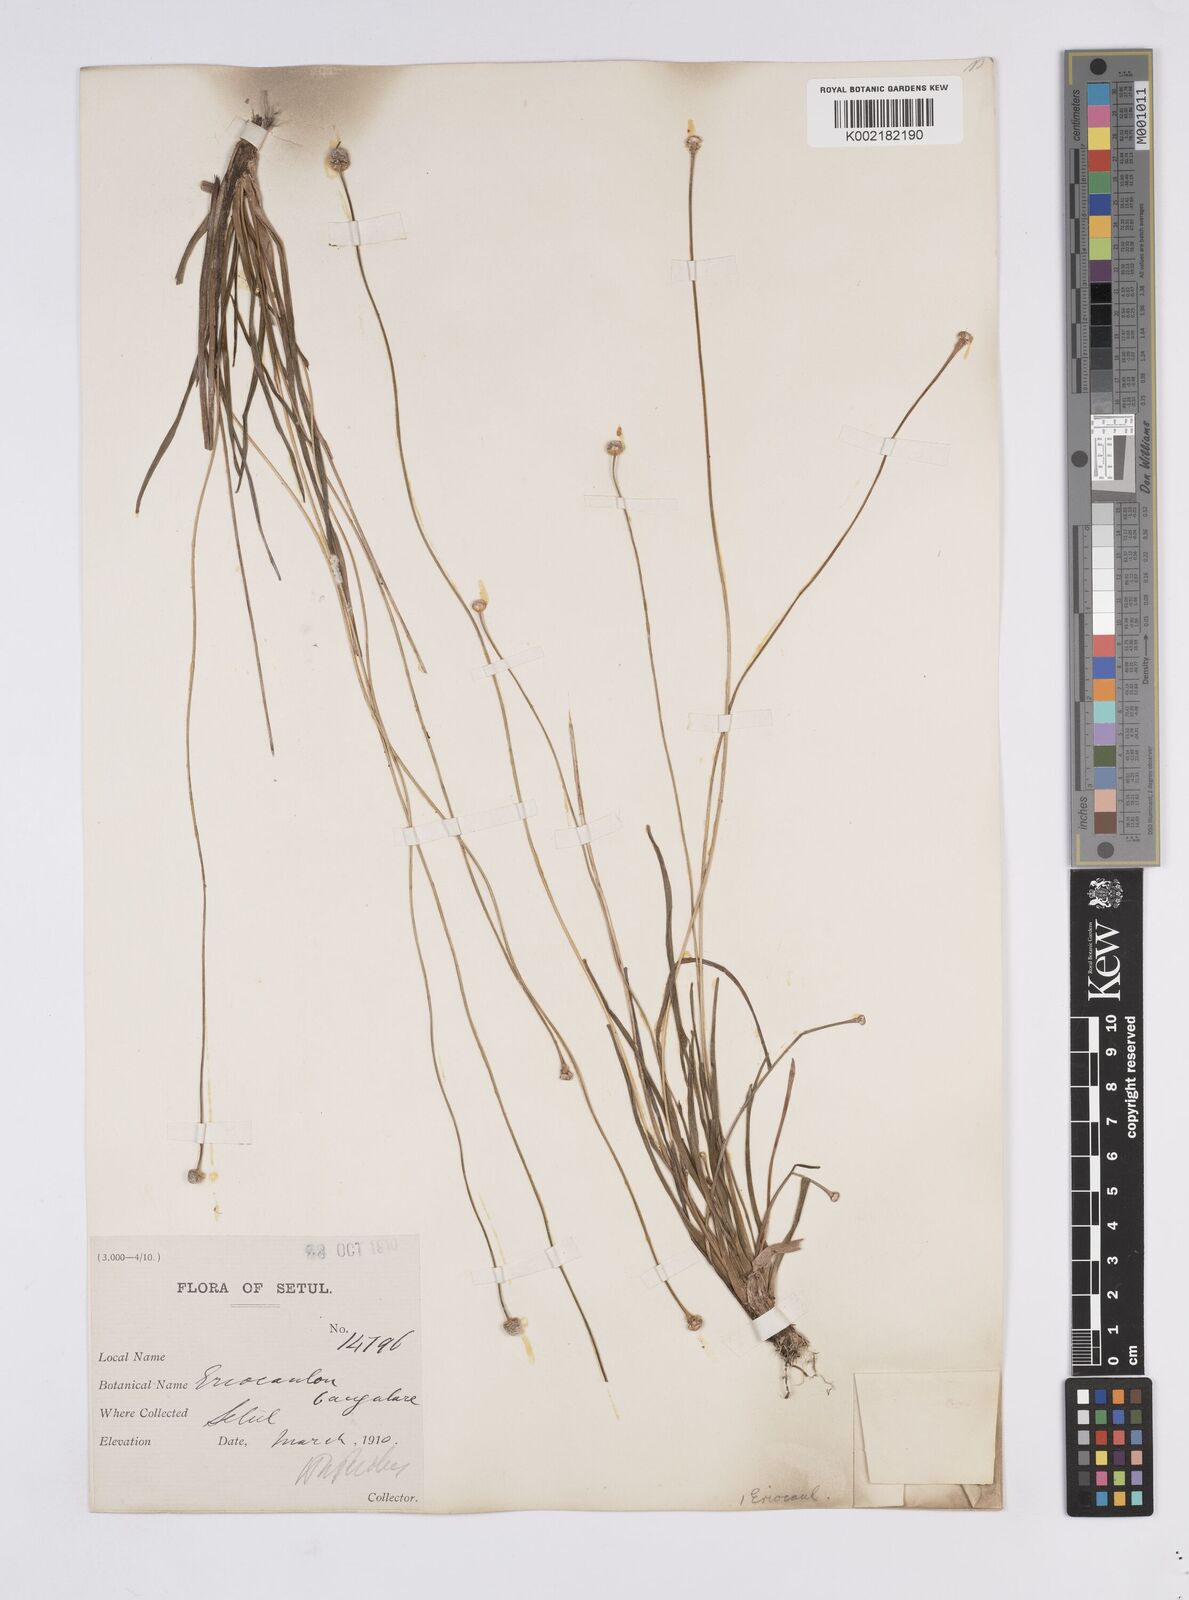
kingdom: Plantae
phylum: Tracheophyta
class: Liliopsida
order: Poales
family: Eriocaulaceae
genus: Eriocaulon
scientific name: Eriocaulon silicicola
